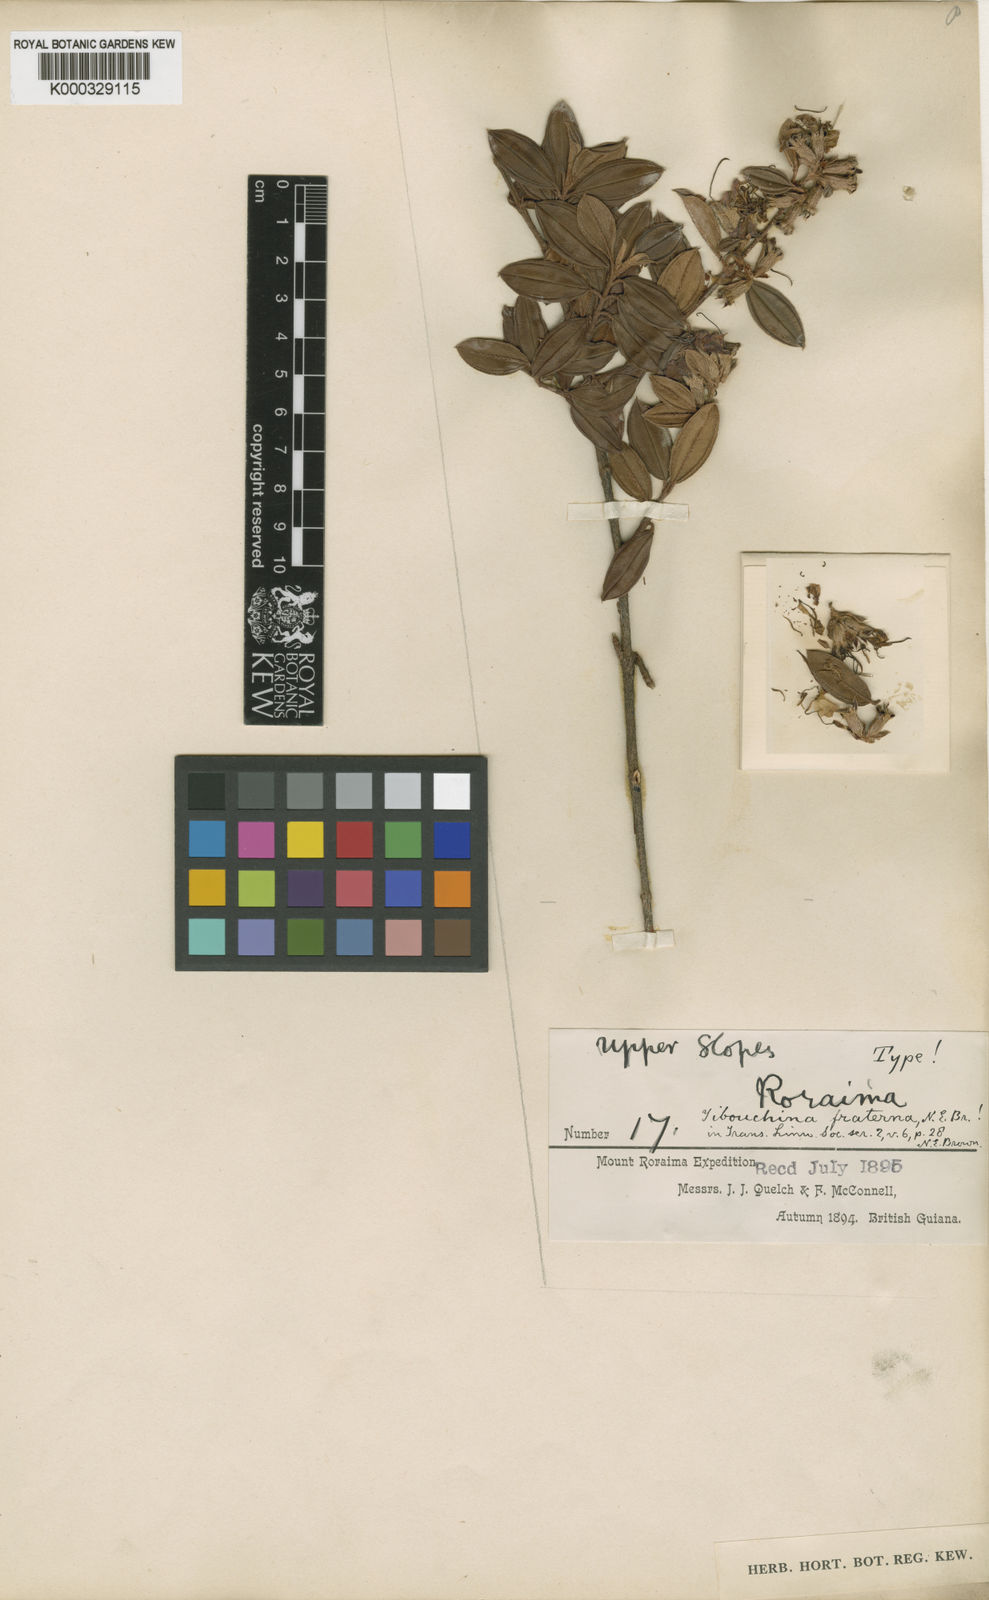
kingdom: Plantae
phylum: Tracheophyta
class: Magnoliopsida
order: Myrtales
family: Melastomataceae
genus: Tibouchina
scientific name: Tibouchina fraterna
